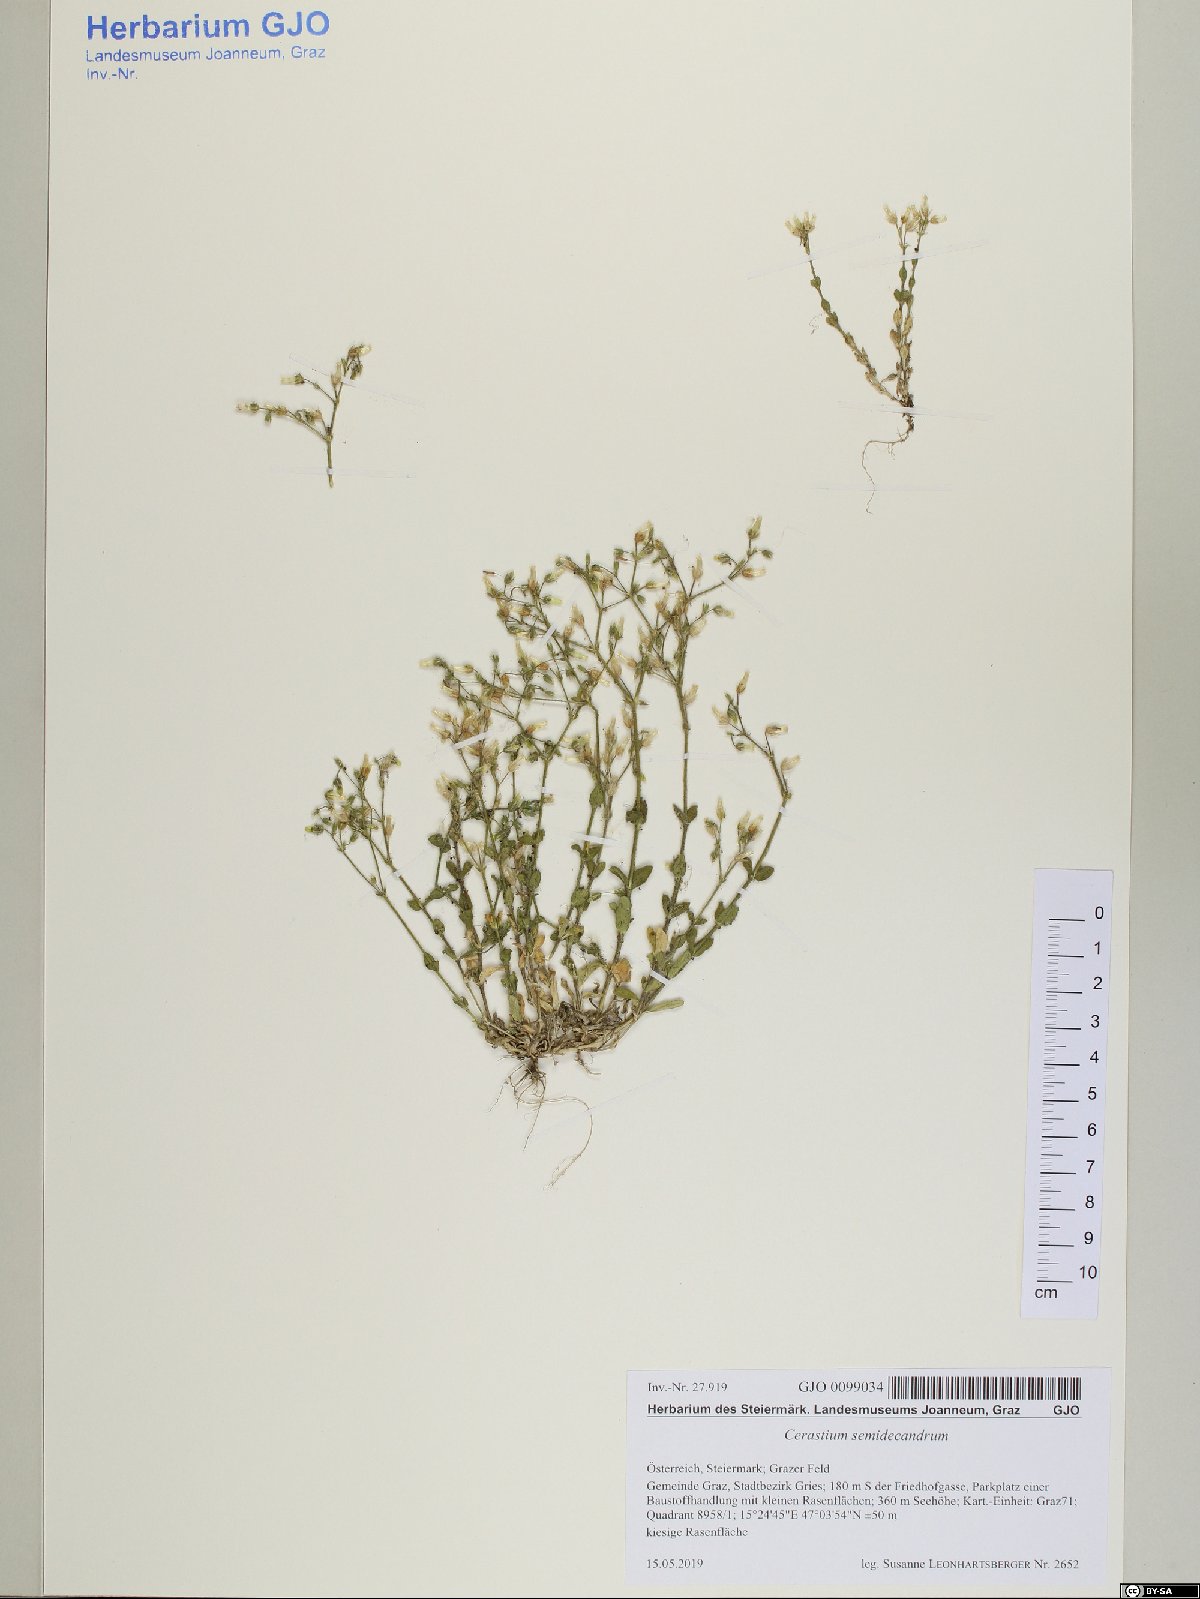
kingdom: Plantae
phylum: Tracheophyta
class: Magnoliopsida
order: Caryophyllales
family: Caryophyllaceae
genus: Cerastium
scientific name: Cerastium semidecandrum
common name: Little mouse-ear
